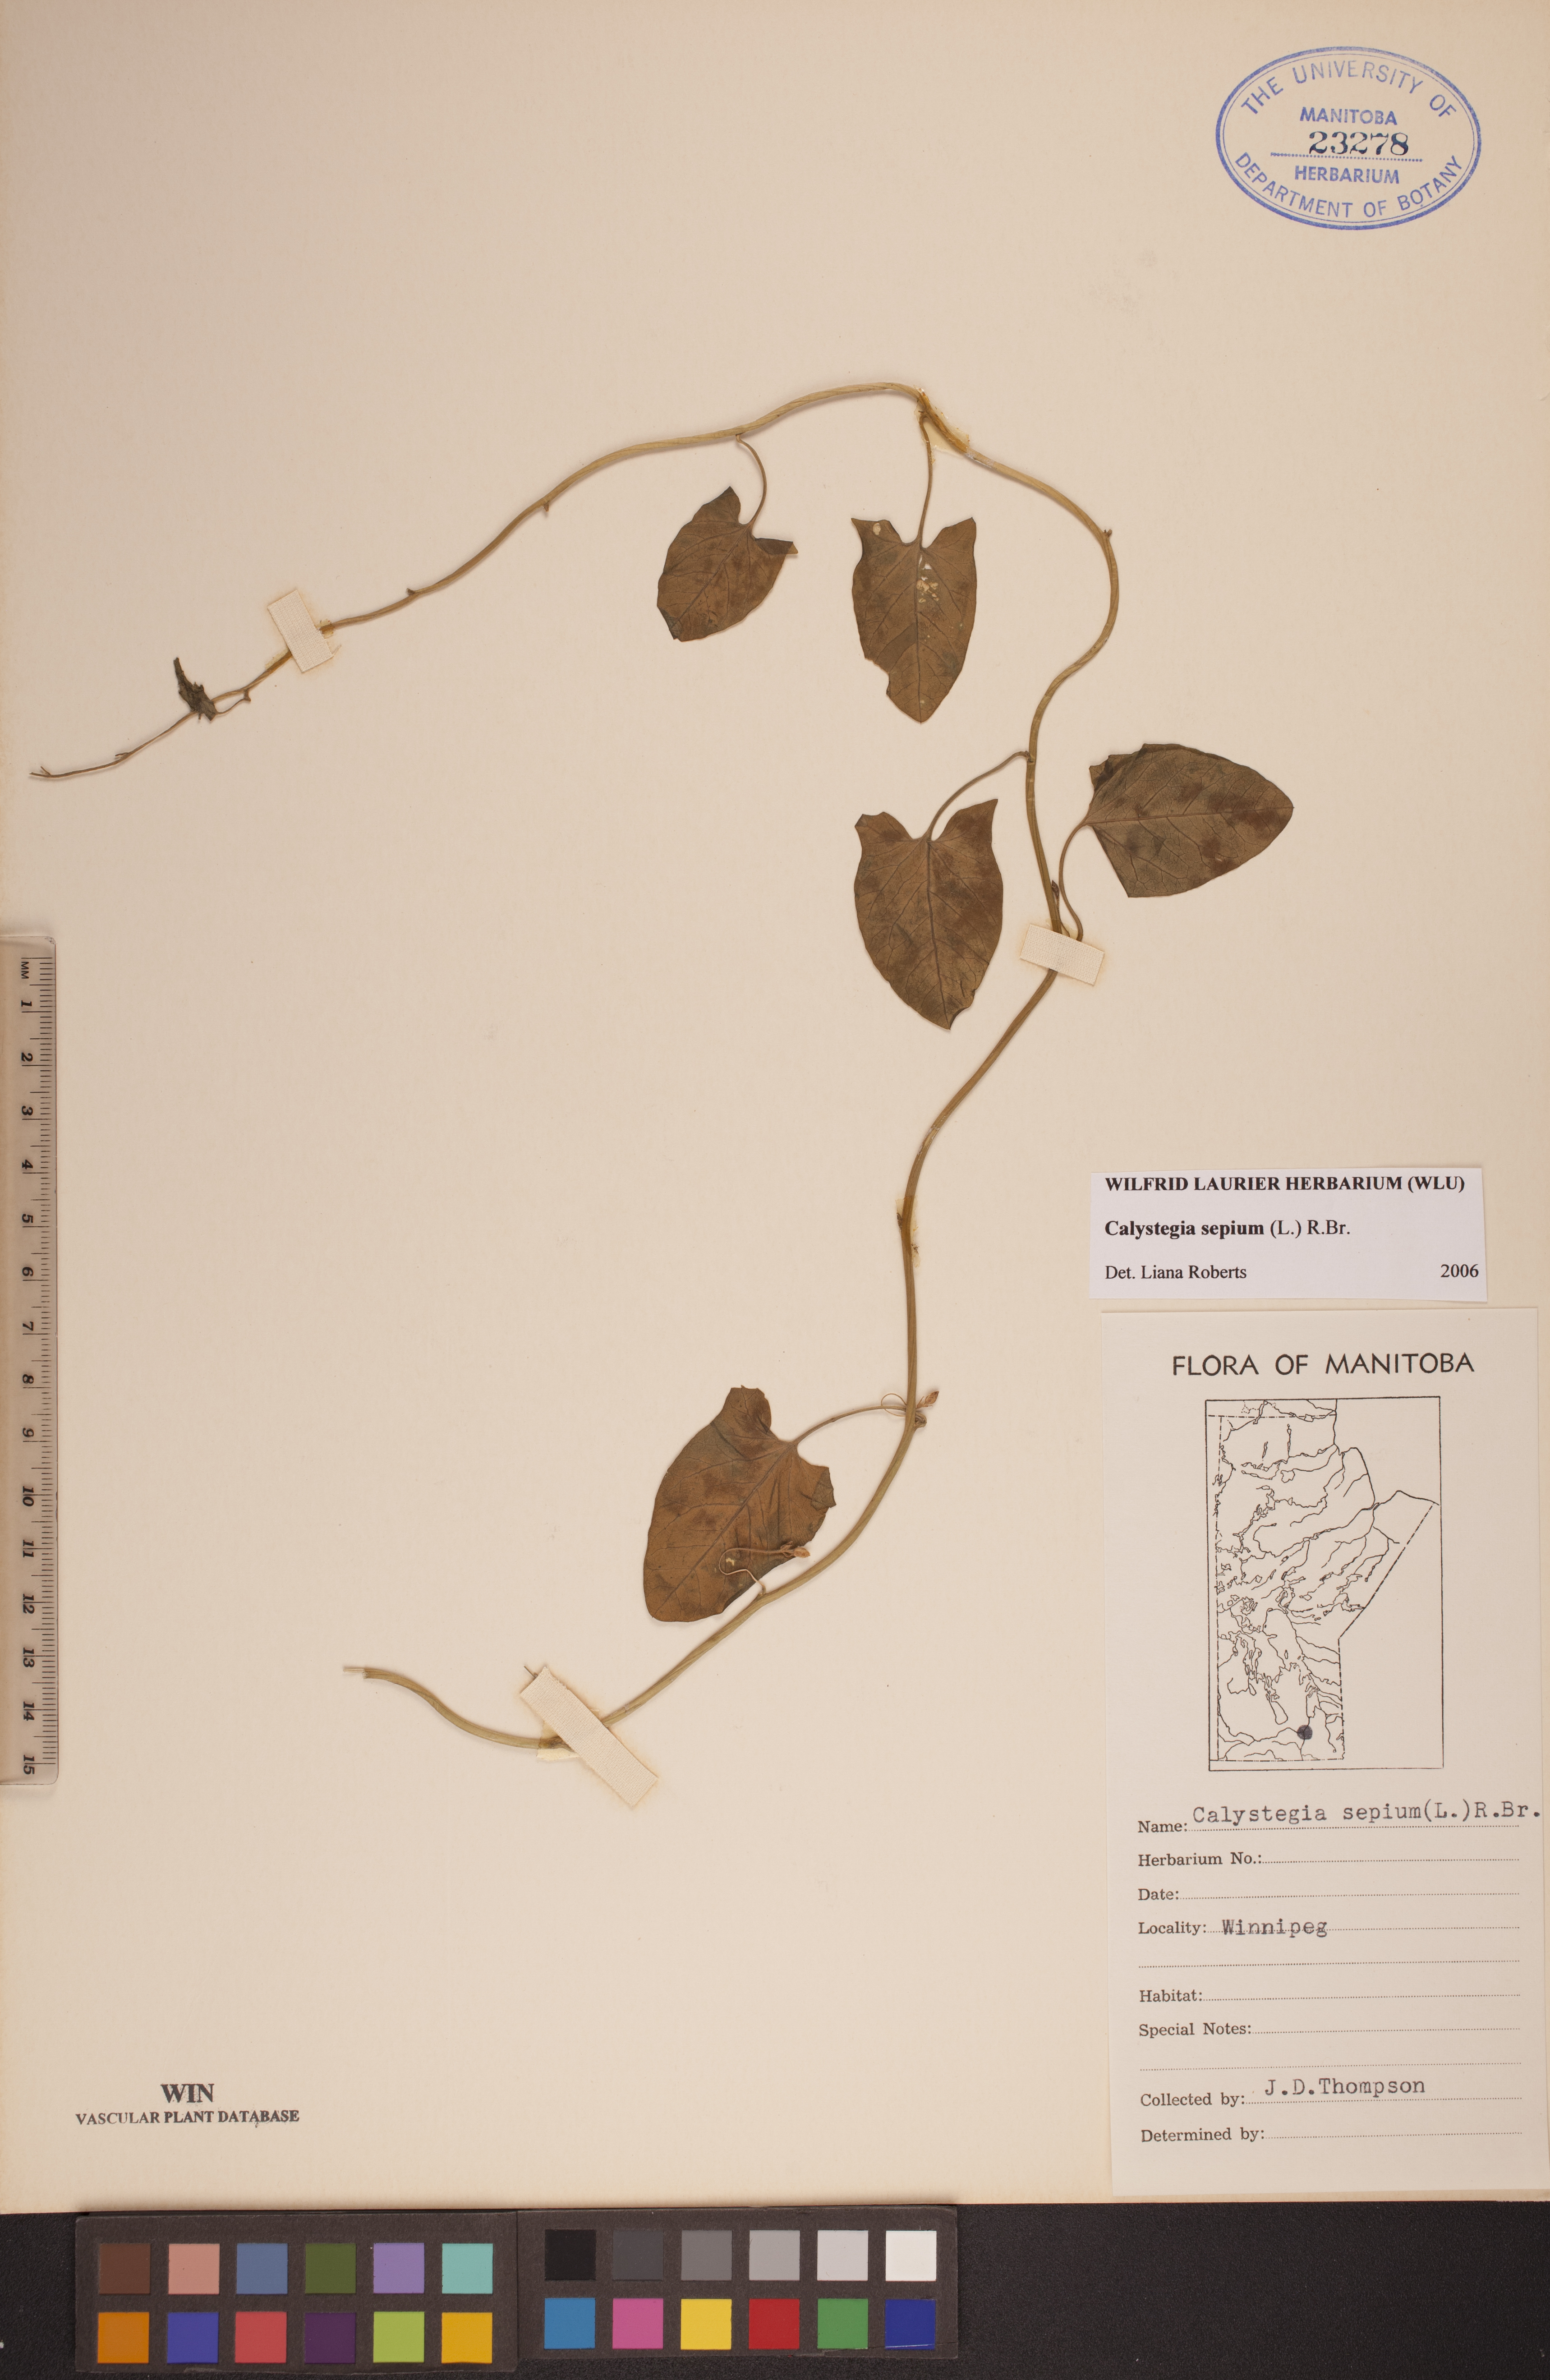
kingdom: Plantae
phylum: Tracheophyta
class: Magnoliopsida
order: Solanales
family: Convolvulaceae
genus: Calystegia
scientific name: Calystegia sepium
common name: Hedge bindweed
